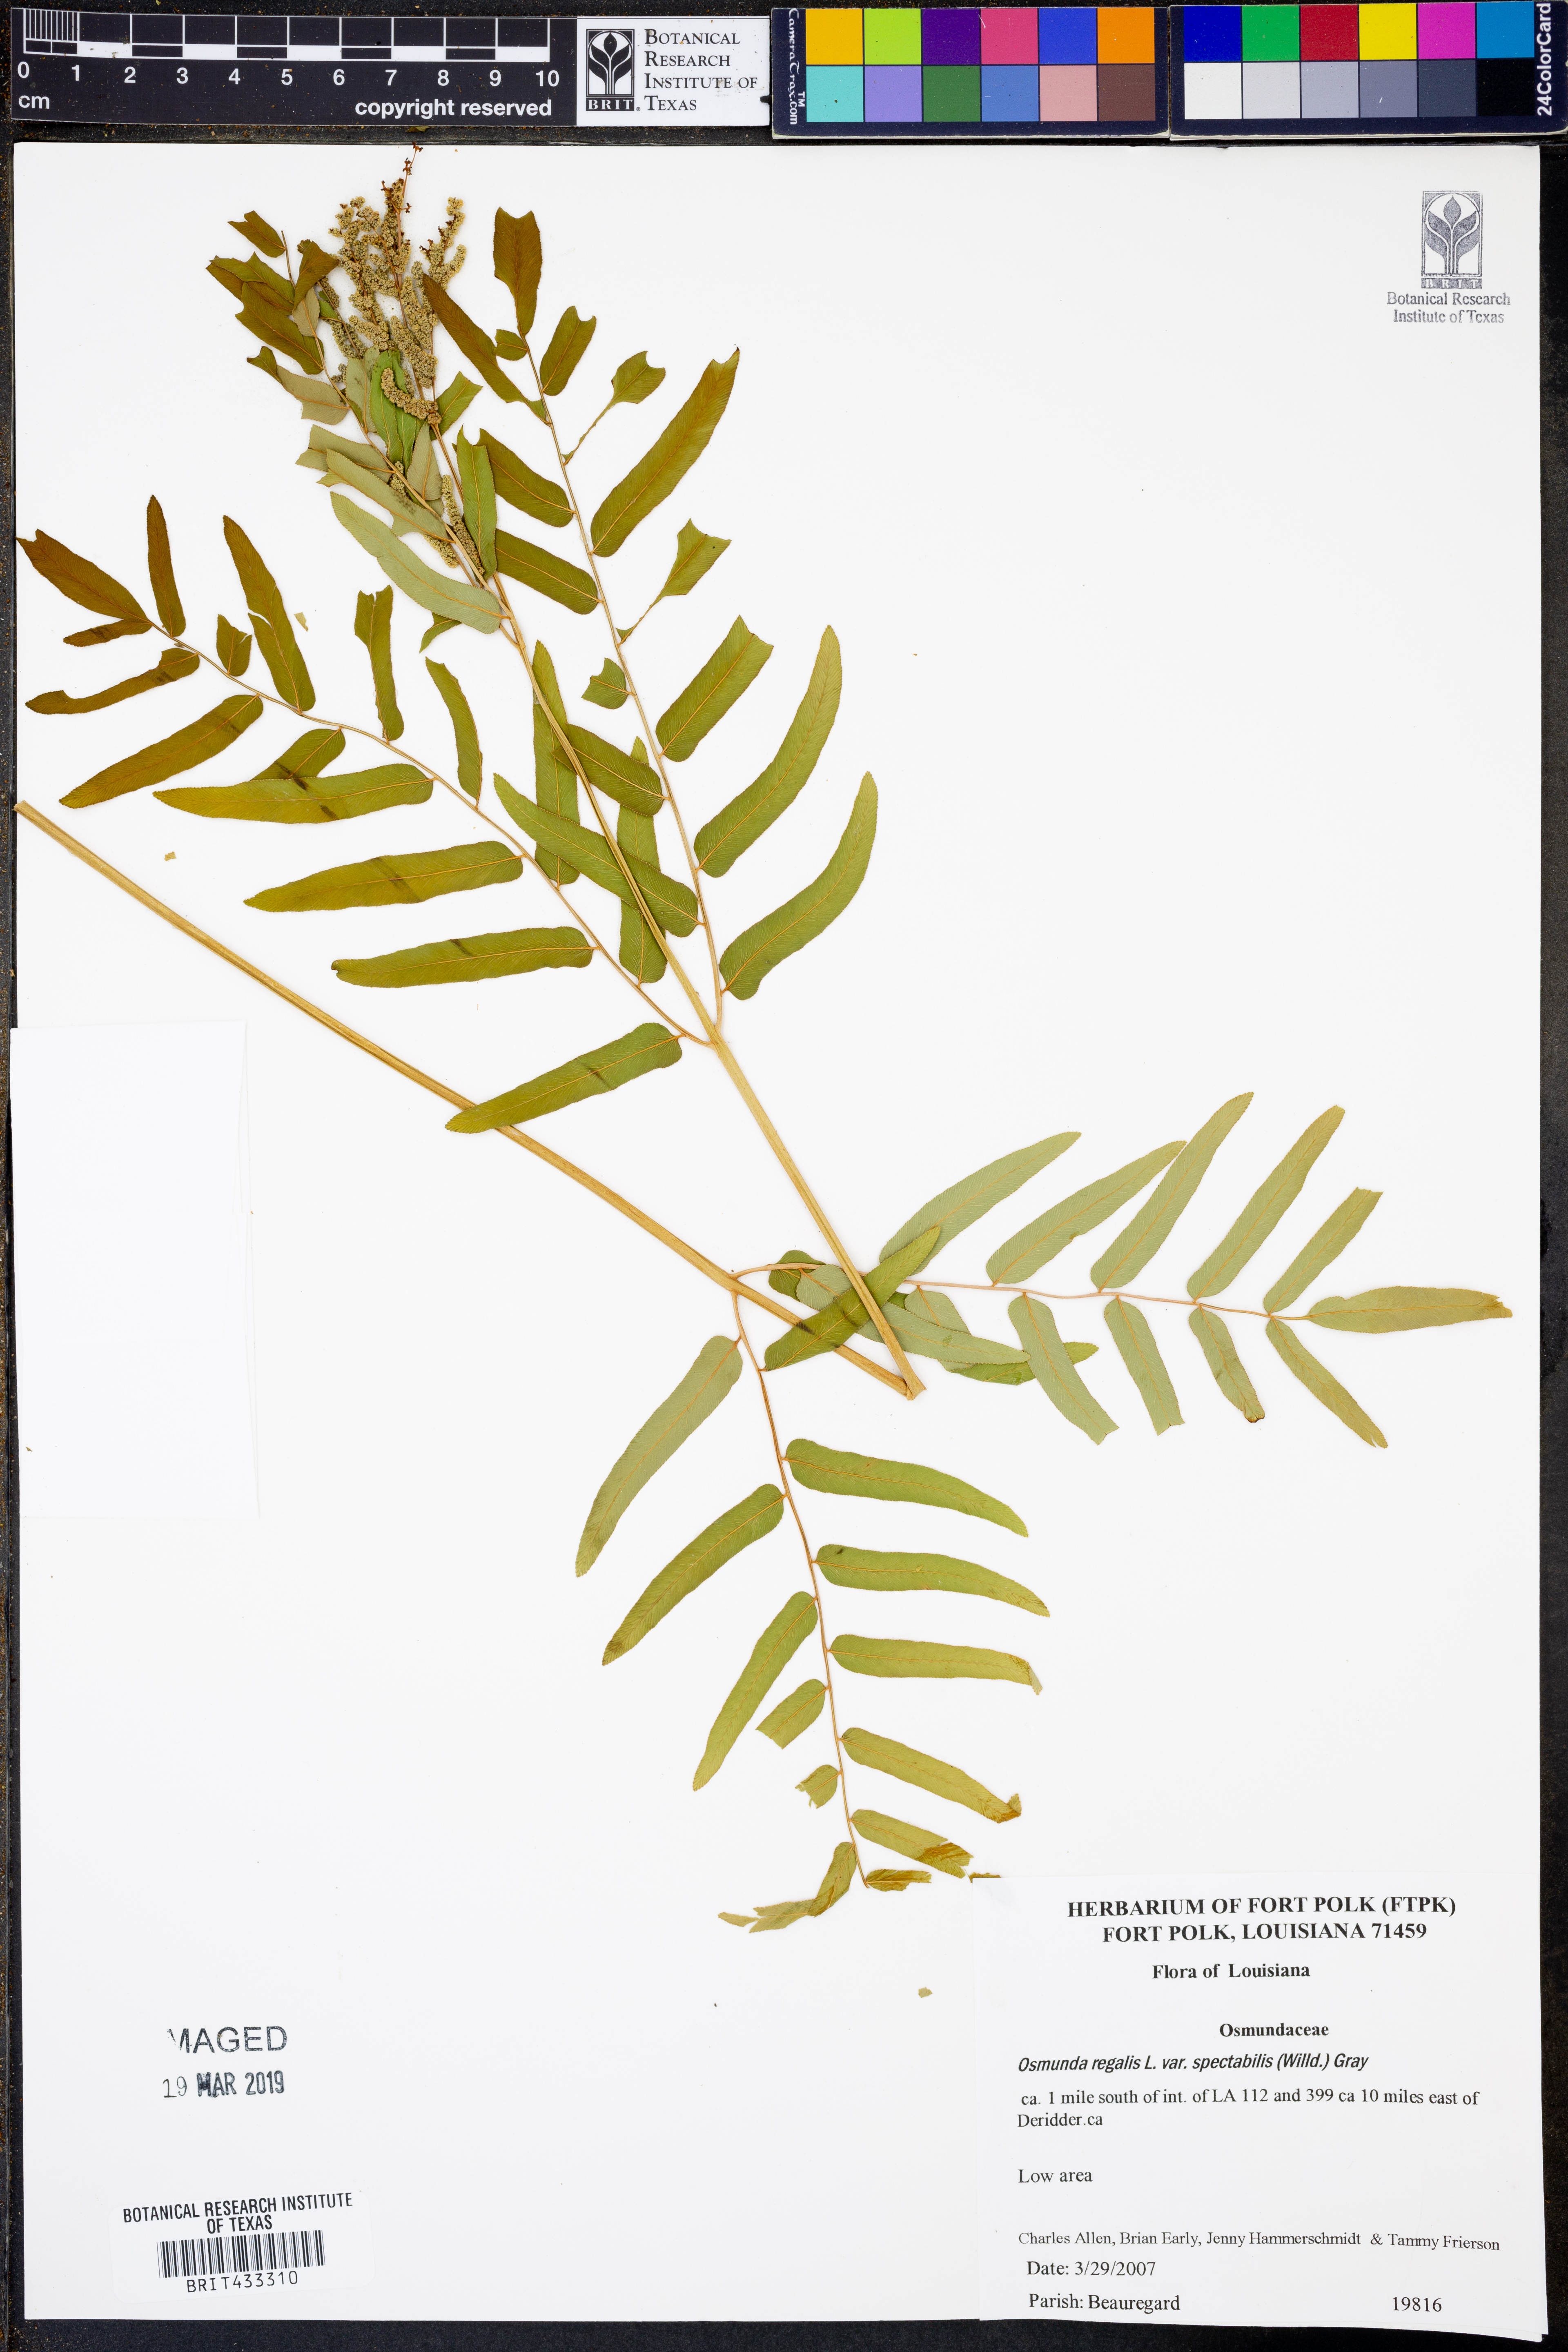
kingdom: Plantae
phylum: Tracheophyta
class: Polypodiopsida
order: Osmundales
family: Osmundaceae
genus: Osmunda
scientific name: Osmunda spectabilis
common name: American royal fern
